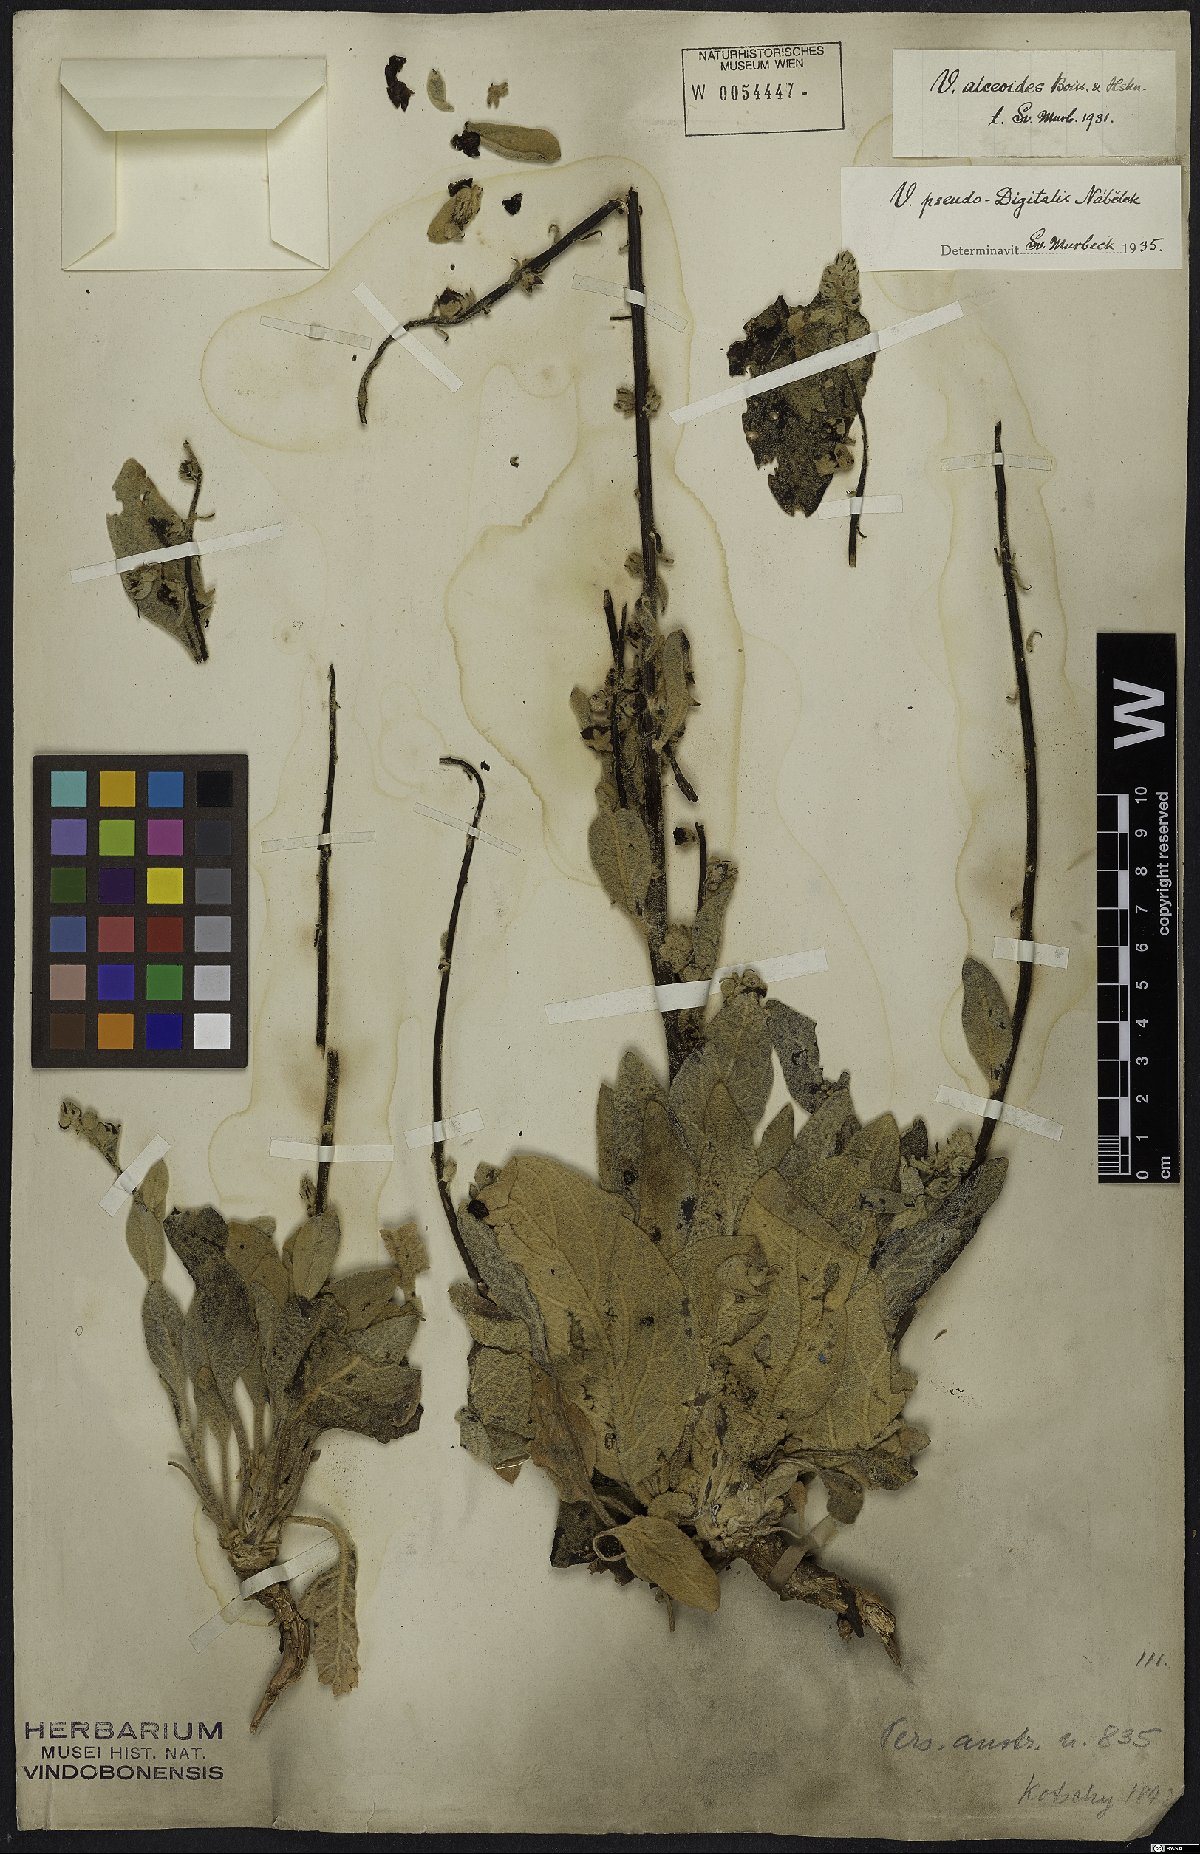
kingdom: Plantae
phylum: Tracheophyta
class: Magnoliopsida
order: Lamiales
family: Scrophulariaceae
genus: Verbascum
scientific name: Verbascum pseudodigitalis
